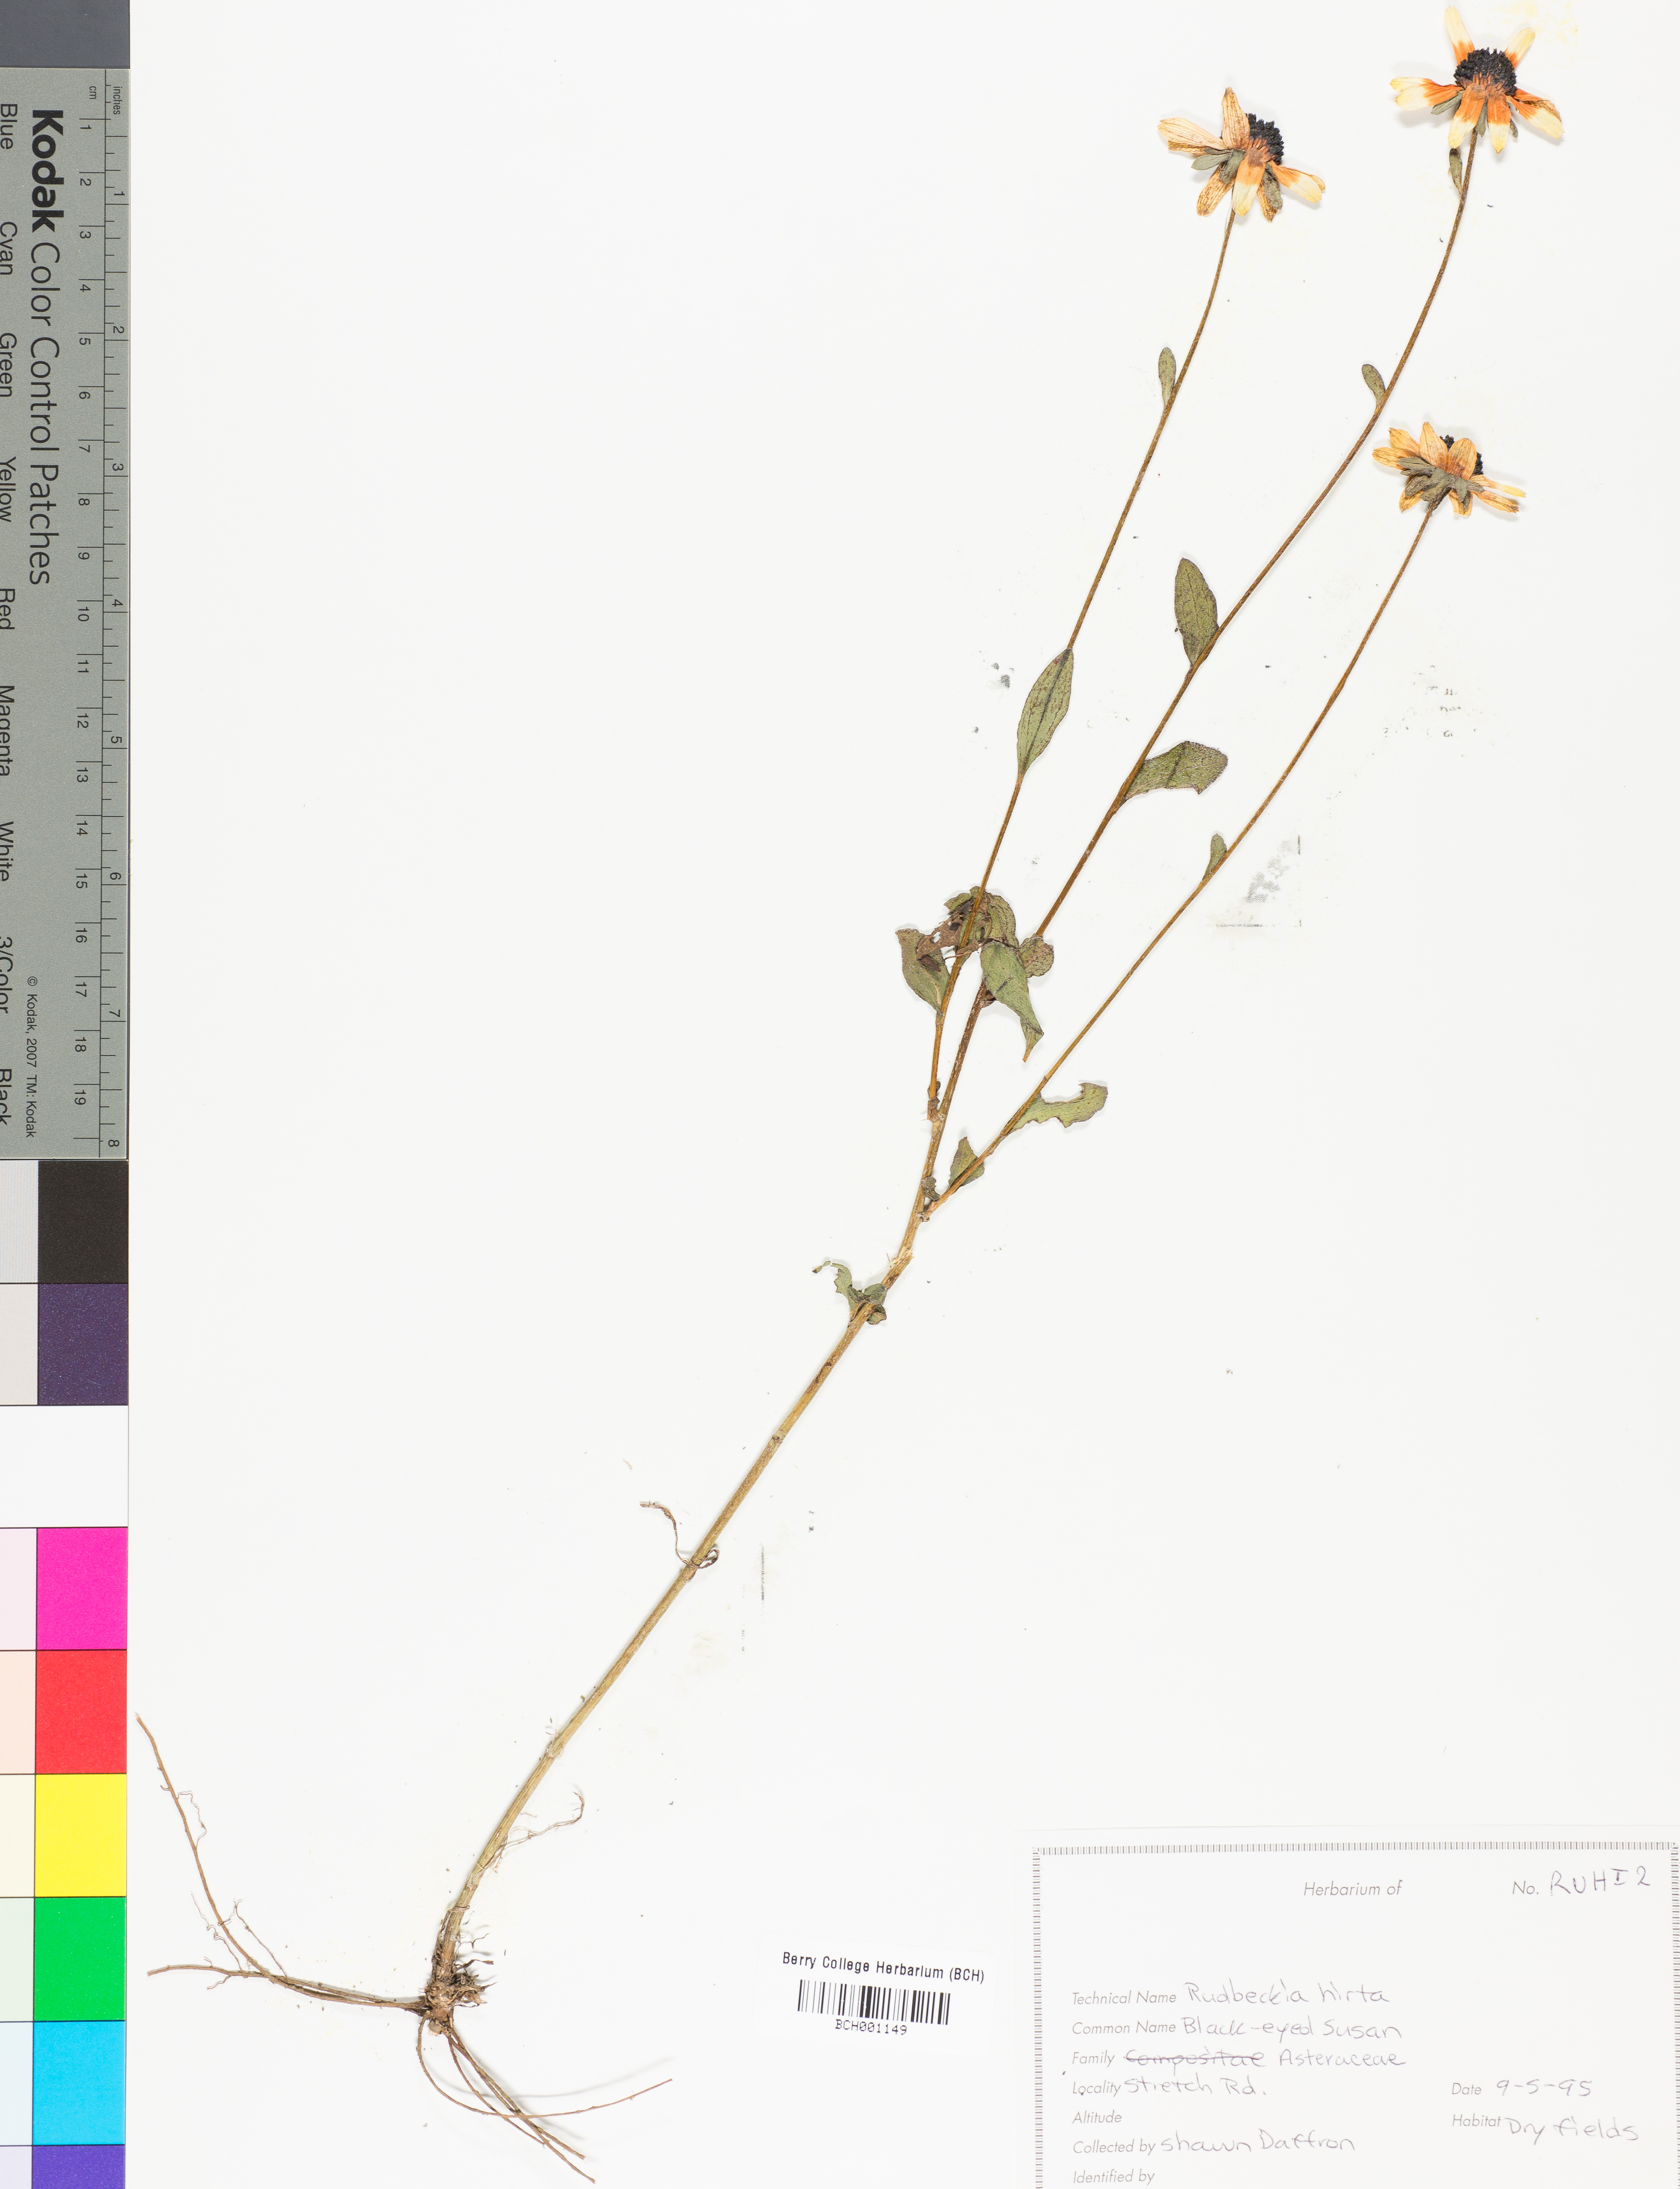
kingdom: Plantae
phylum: Tracheophyta
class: Magnoliopsida
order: Asterales
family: Asteraceae
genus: Rudbeckia
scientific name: Rudbeckia hirta
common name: Black-eyed-susan
